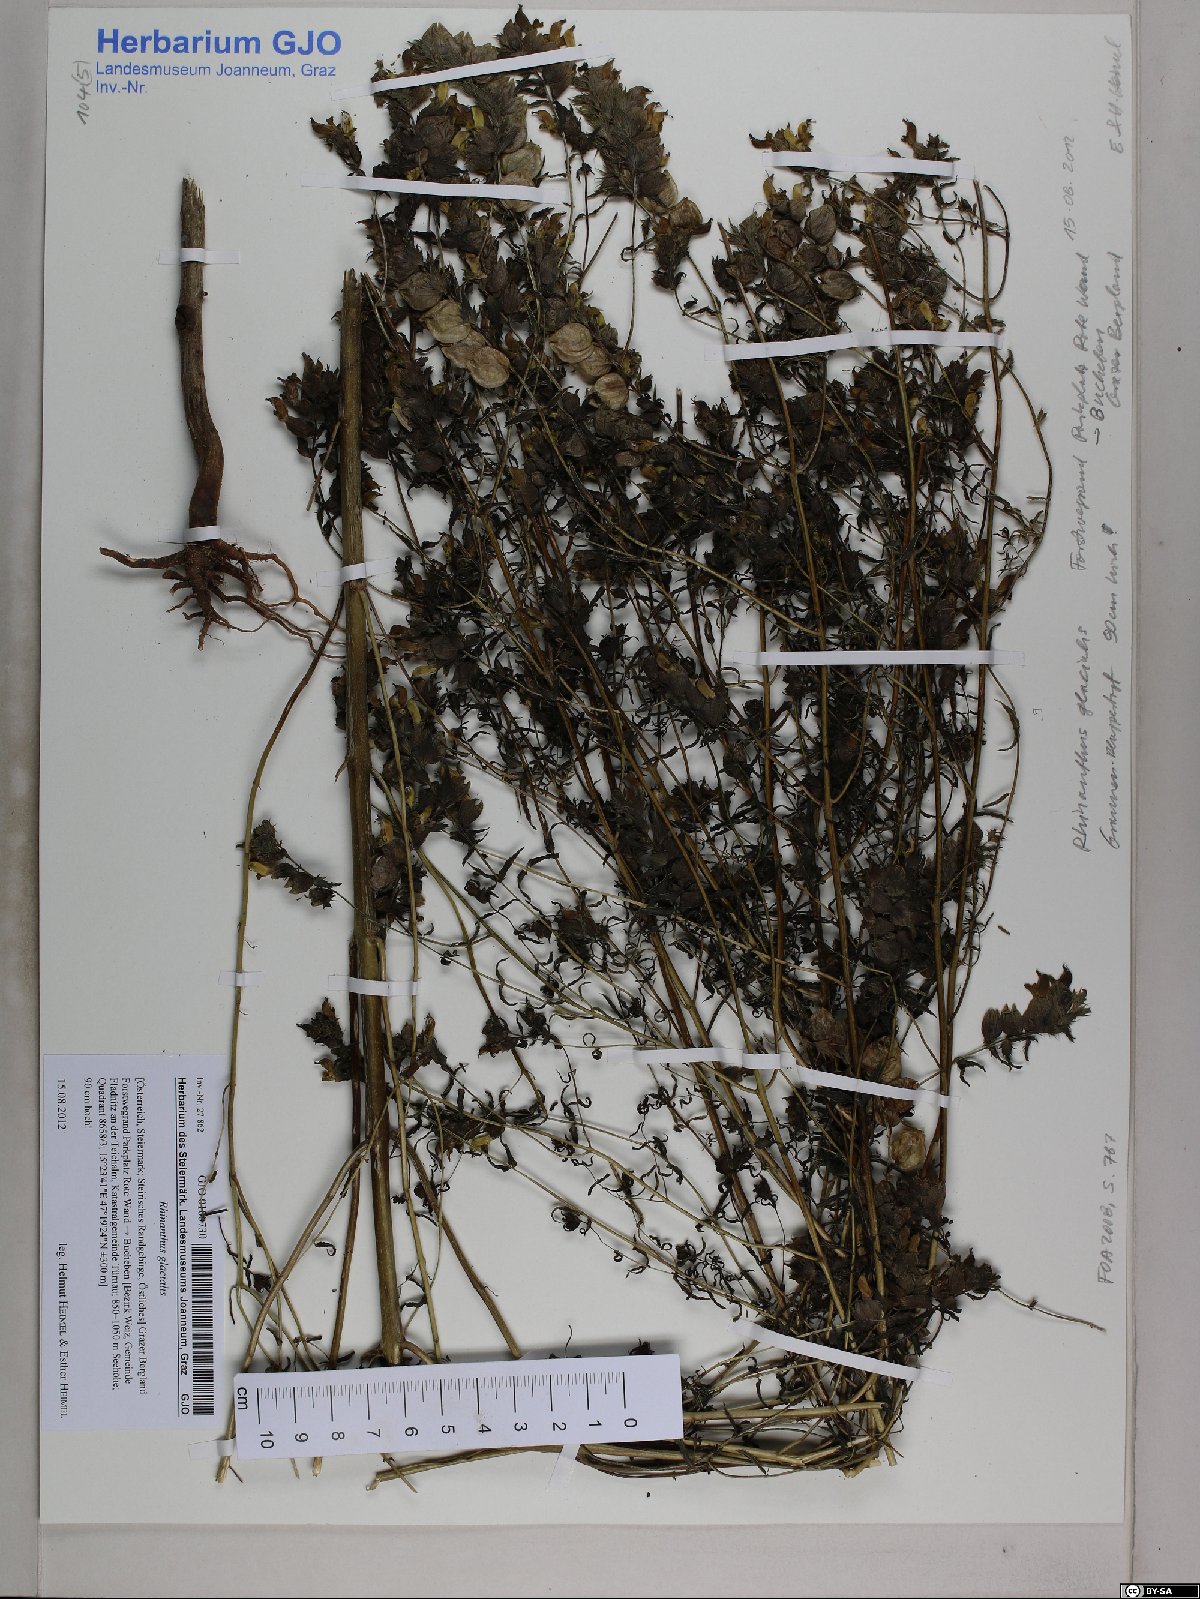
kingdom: Plantae
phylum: Tracheophyta
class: Magnoliopsida
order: Lamiales
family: Orobanchaceae
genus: Rhinanthus
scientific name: Rhinanthus glacialis
